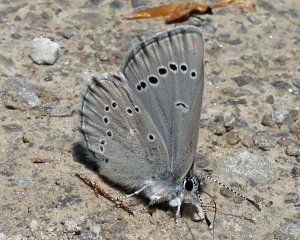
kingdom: Animalia
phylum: Arthropoda
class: Insecta
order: Lepidoptera
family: Lycaenidae
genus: Glaucopsyche
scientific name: Glaucopsyche lygdamus
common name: Silvery Blue
